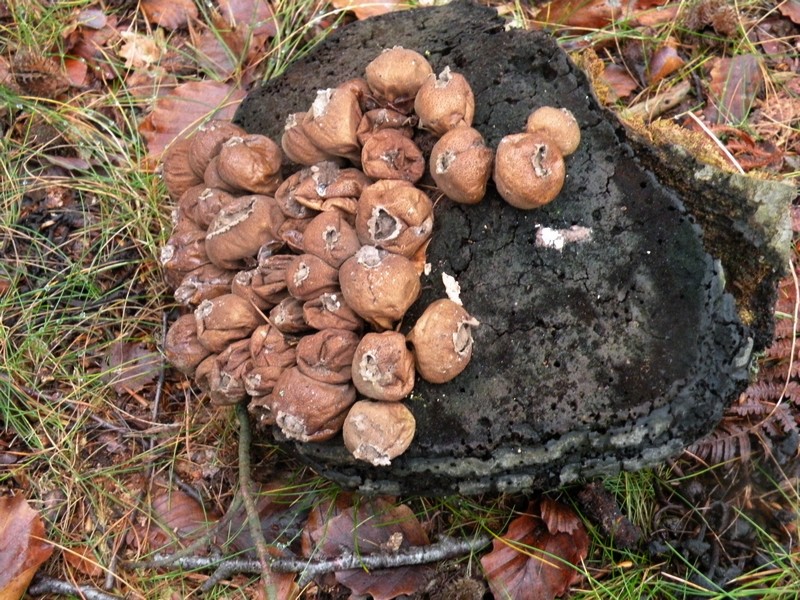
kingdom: Fungi
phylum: Basidiomycota
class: Agaricomycetes
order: Agaricales
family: Lycoperdaceae
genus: Apioperdon
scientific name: Apioperdon pyriforme
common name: pære-støvbold
